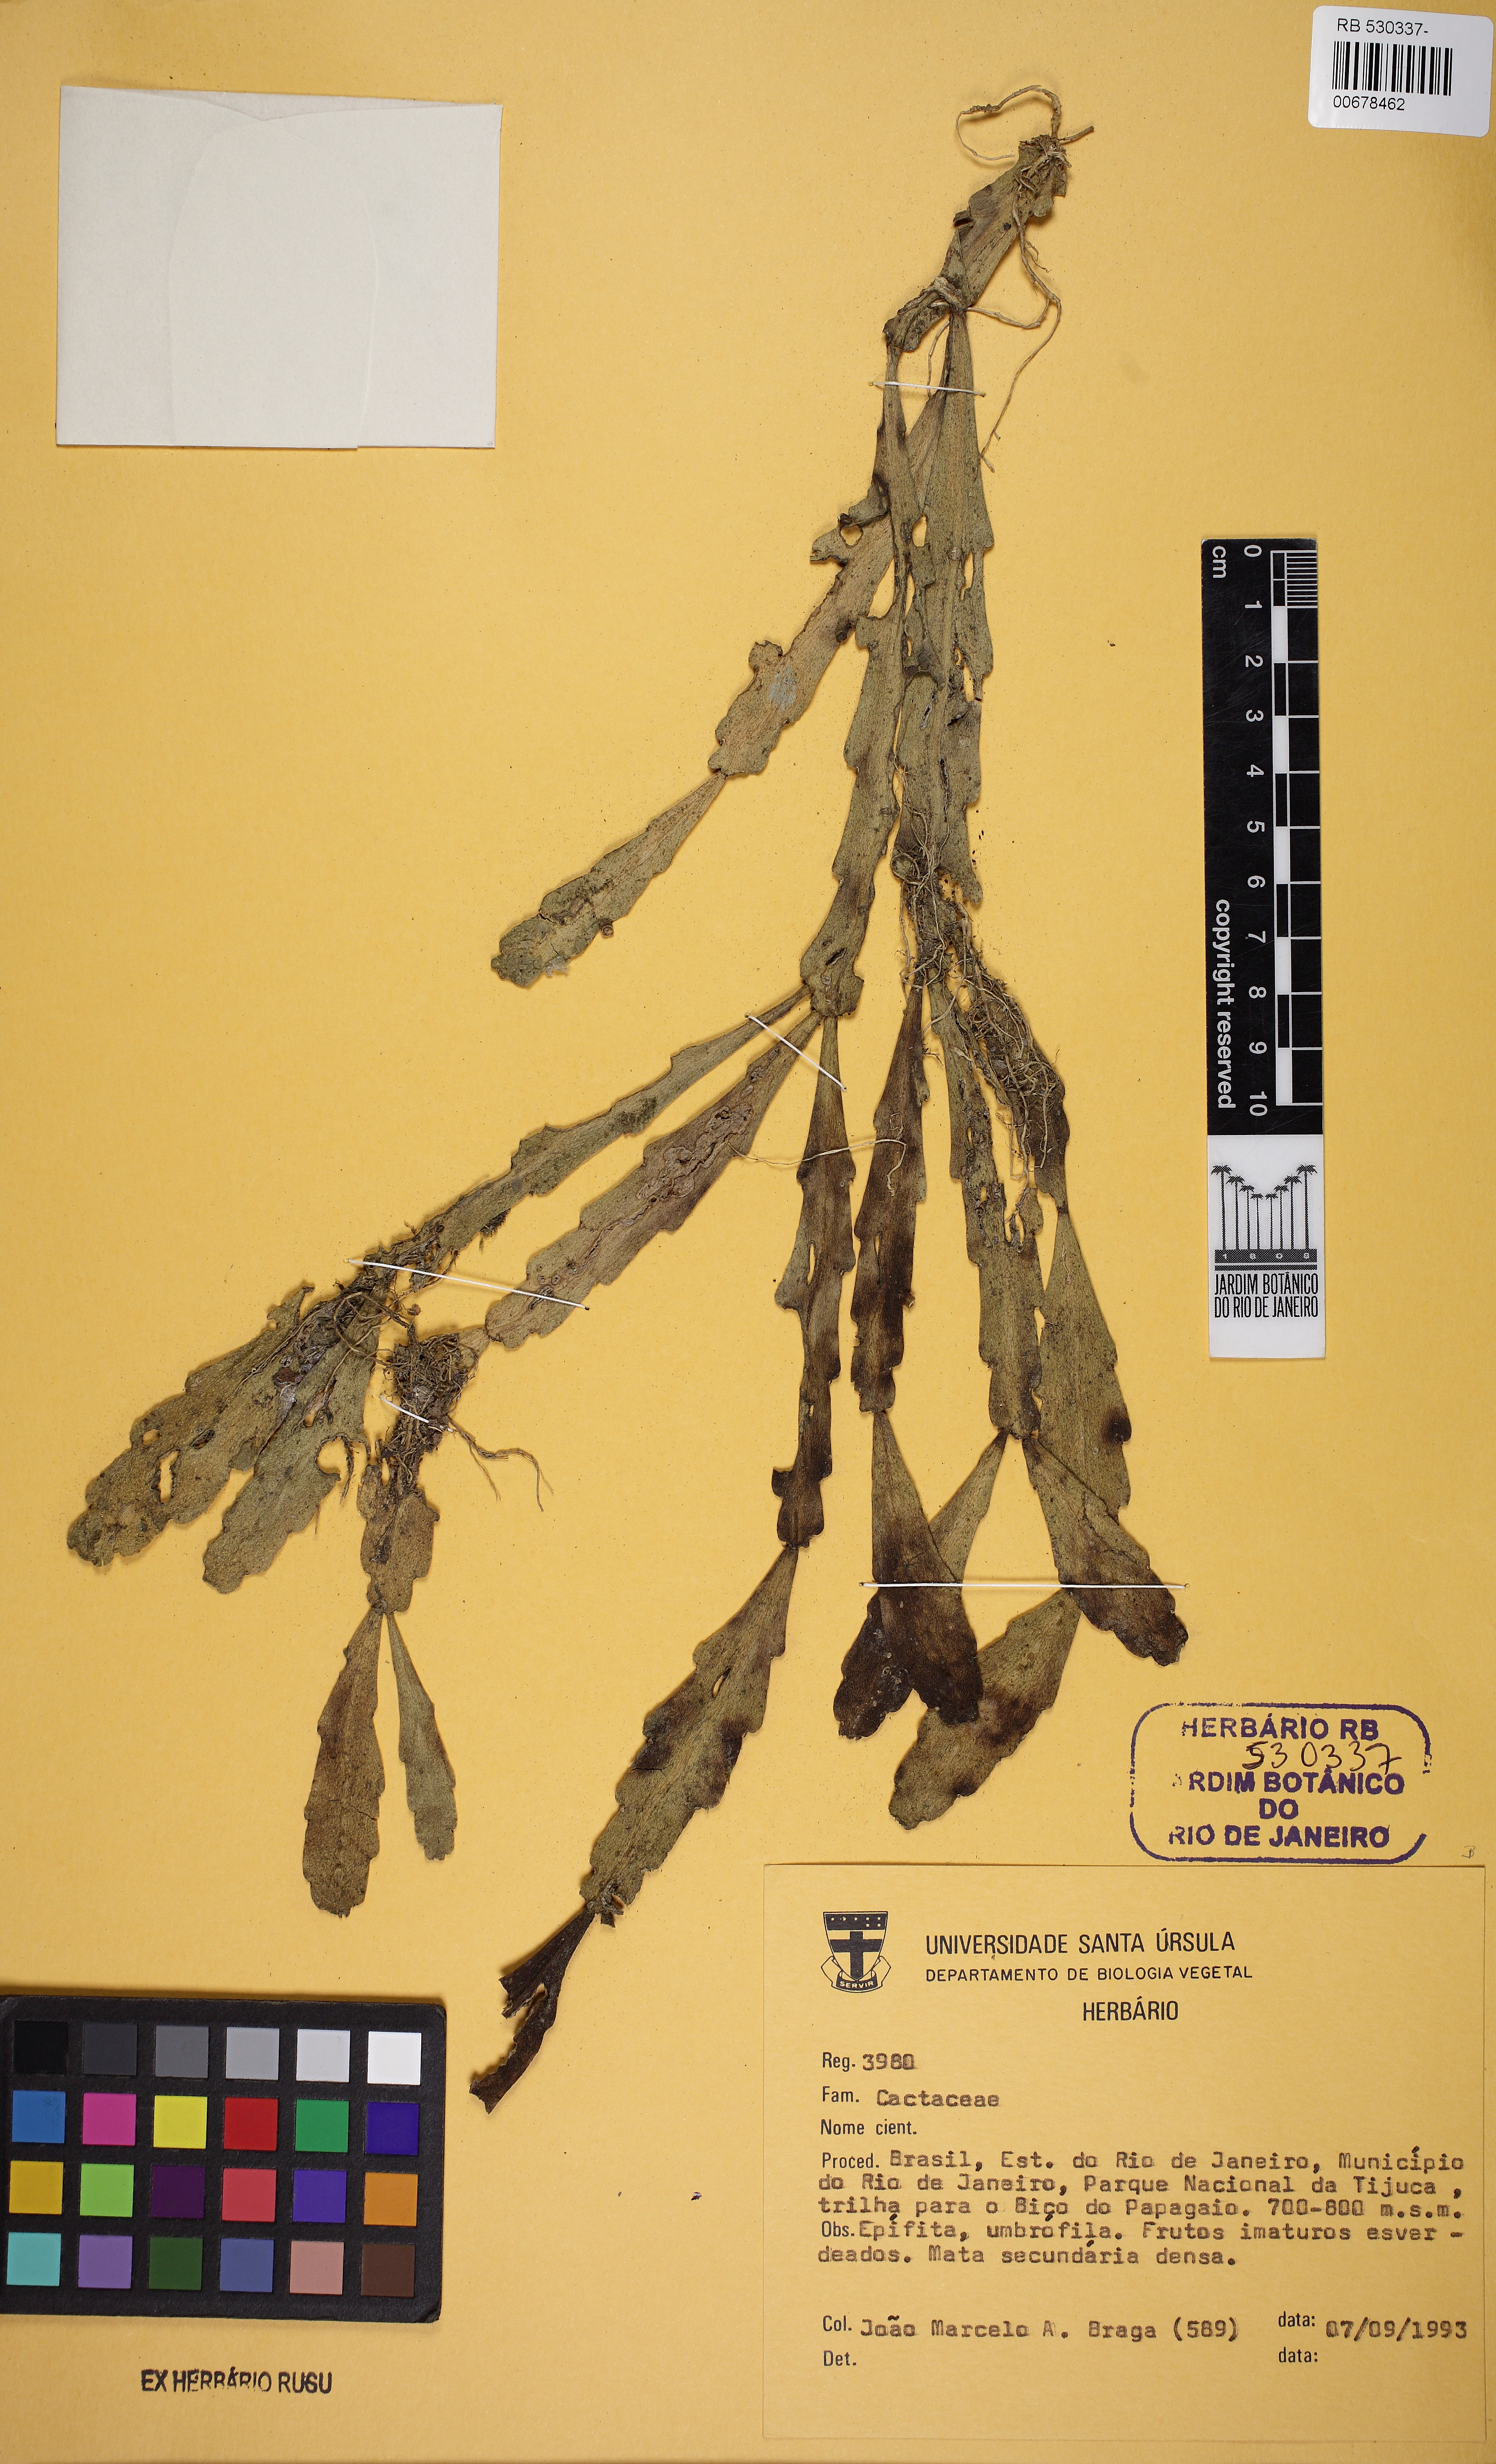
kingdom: Plantae
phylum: Tracheophyta
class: Magnoliopsida
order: Caryophyllales
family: Cactaceae
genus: Rhipsalis
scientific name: Rhipsalis oblonga
